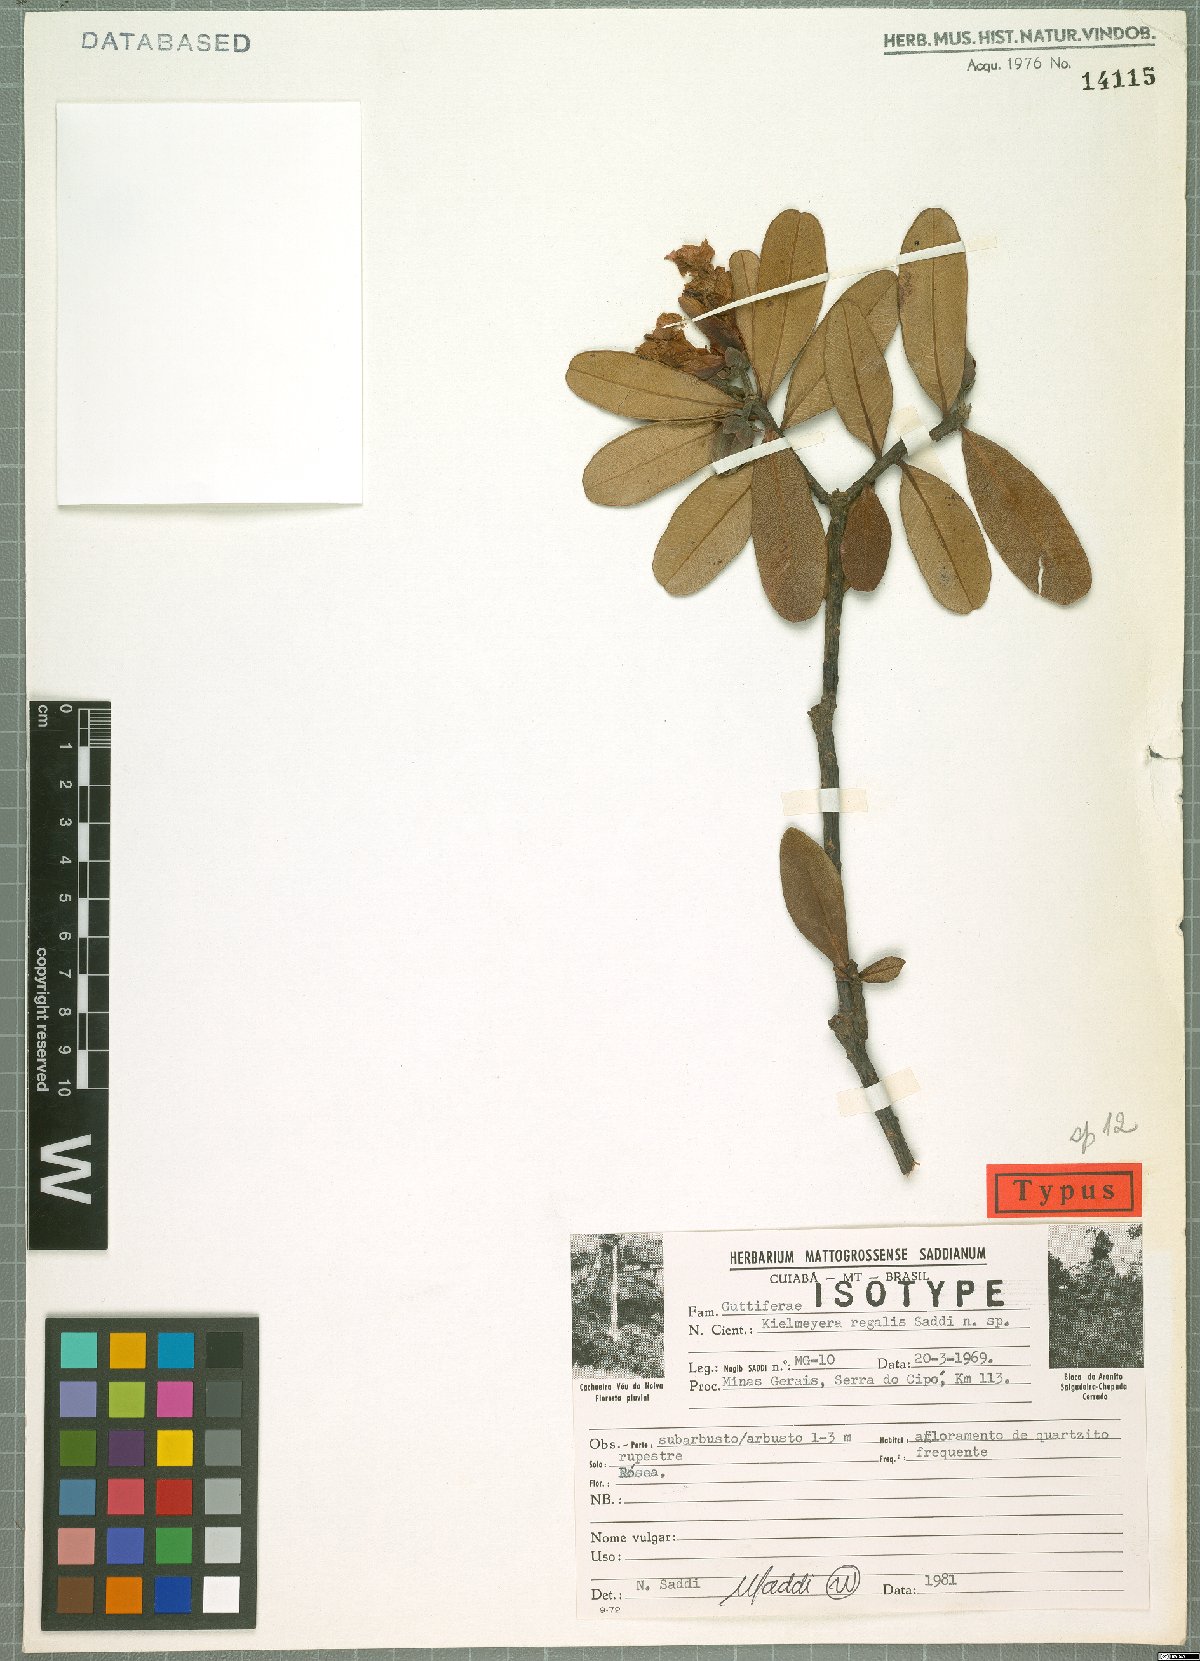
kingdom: Plantae
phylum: Tracheophyta
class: Magnoliopsida
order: Malpighiales
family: Calophyllaceae
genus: Kielmeyera
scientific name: Kielmeyera regalis
